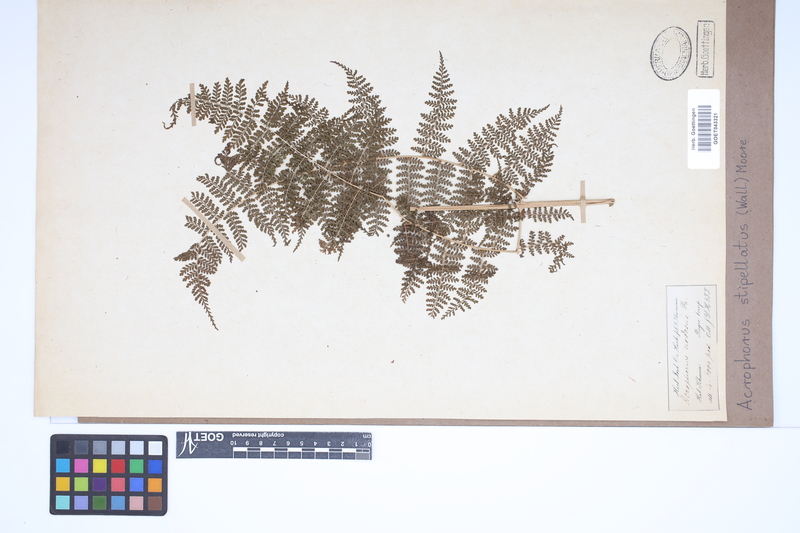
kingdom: Plantae
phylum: Tracheophyta
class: Polypodiopsida
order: Polypodiales
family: Dryopteridaceae
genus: Dryopteris
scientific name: Dryopteris nodosa
